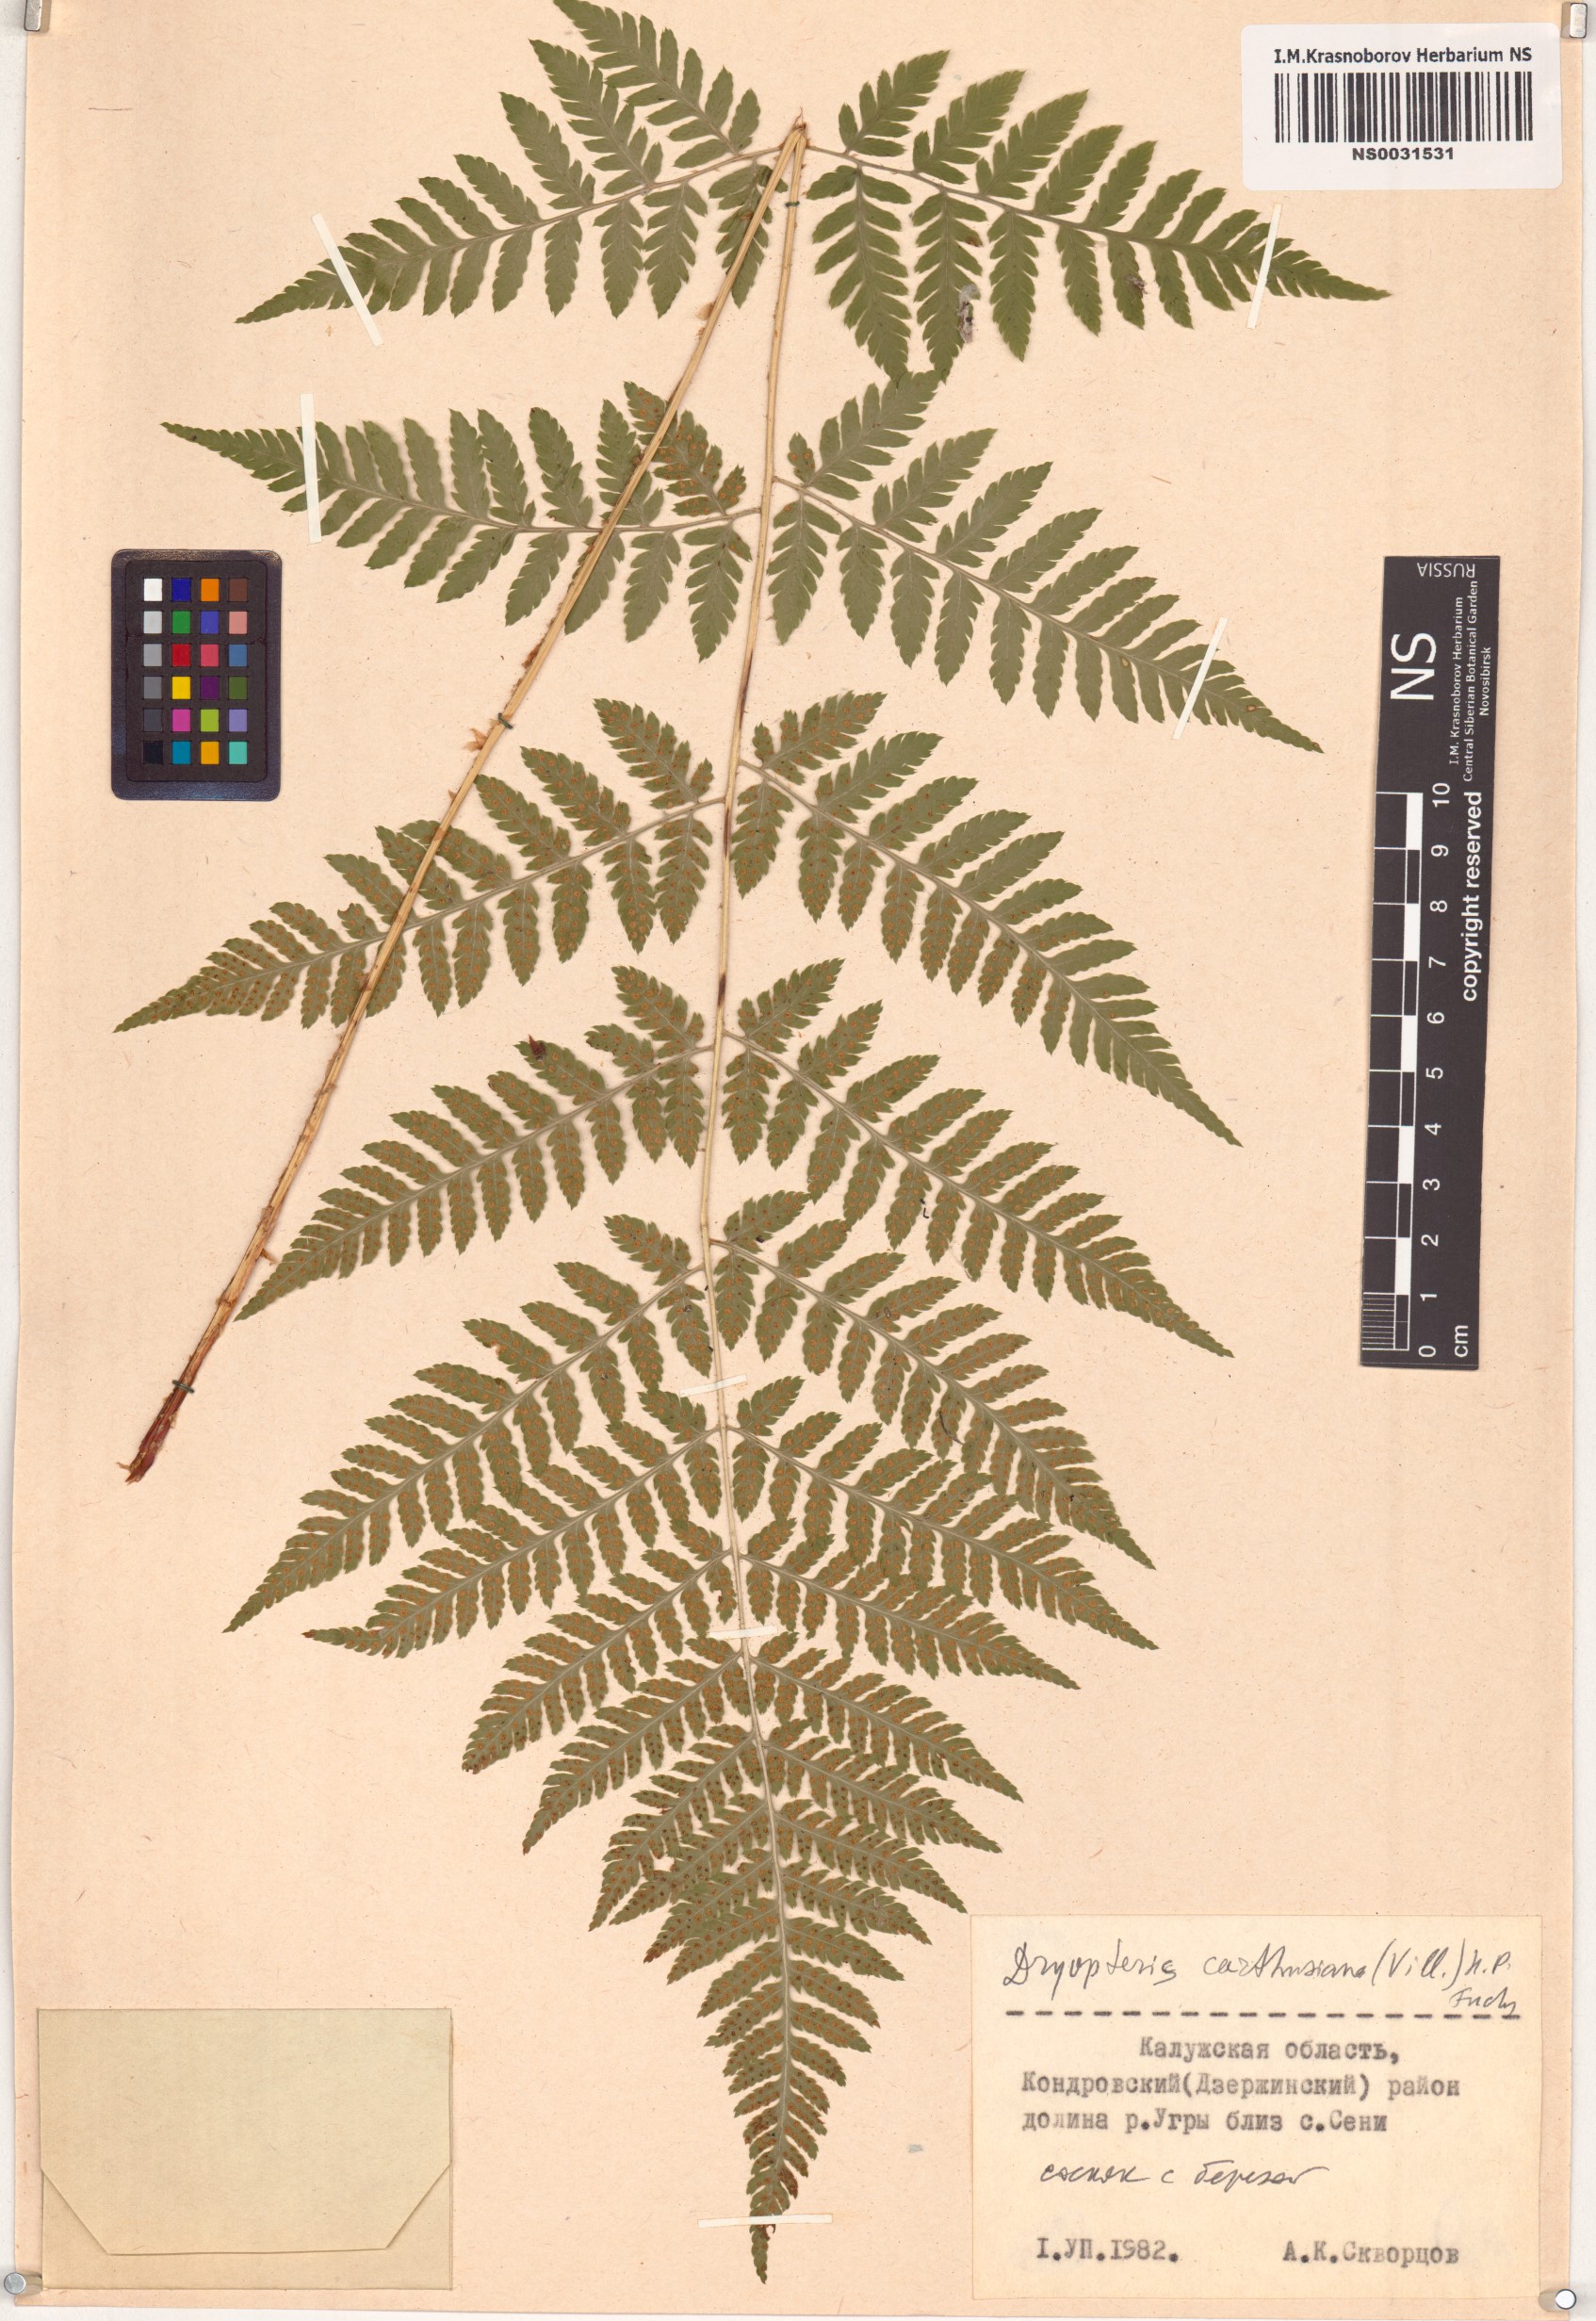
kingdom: Plantae
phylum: Tracheophyta
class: Polypodiopsida
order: Polypodiales
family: Dryopteridaceae
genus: Dryopteris
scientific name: Dryopteris carthusiana
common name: Narrow buckler-fern
